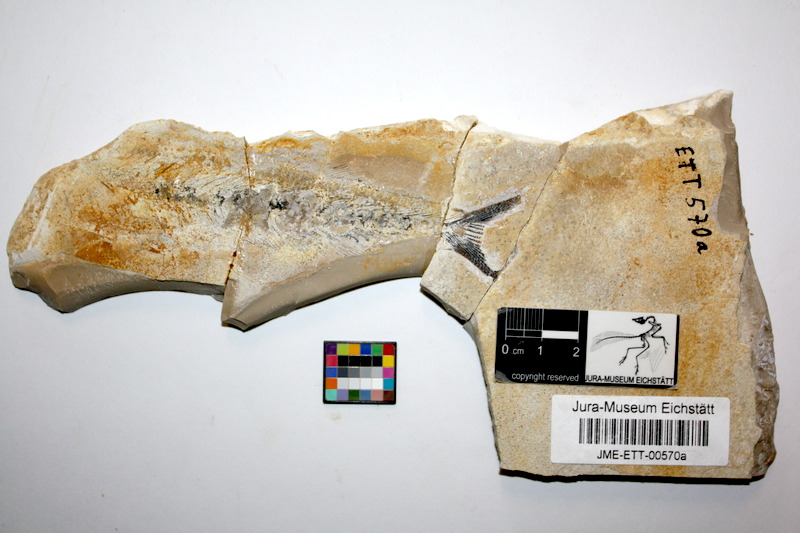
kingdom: Animalia
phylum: Chordata
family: Allothrissopidae
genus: Allothrissops
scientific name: Allothrissops mesogaster
